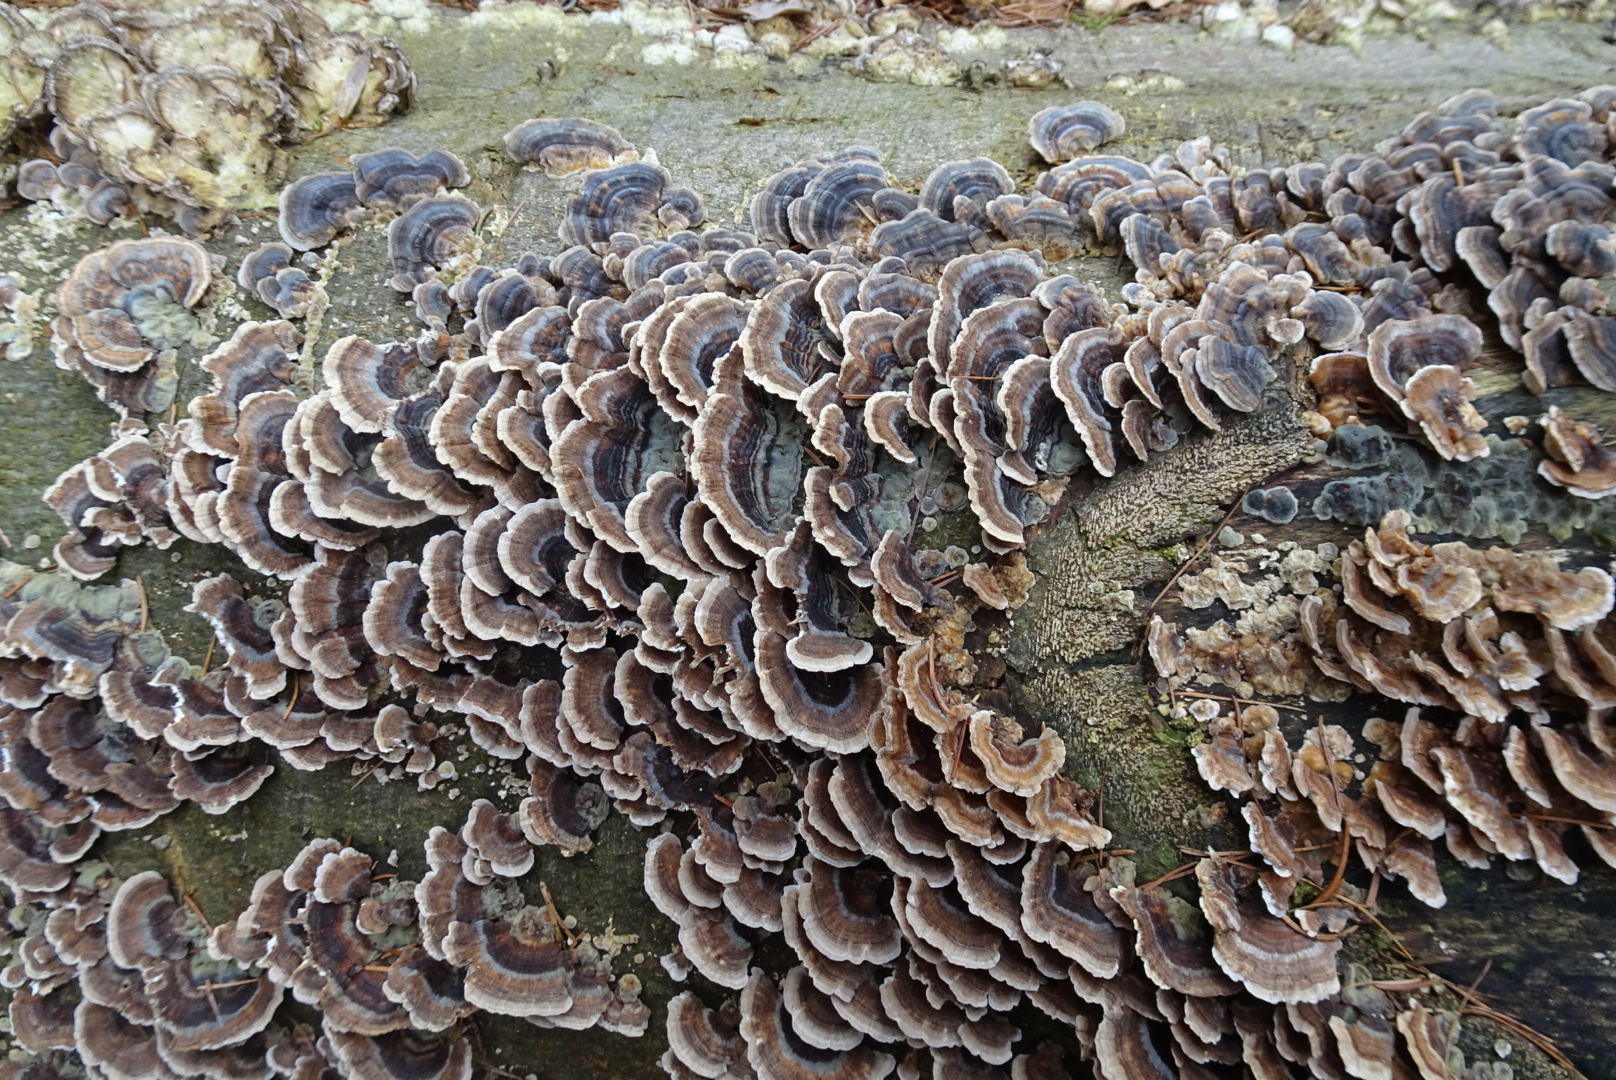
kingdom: Fungi
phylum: Basidiomycota
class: Agaricomycetes
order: Polyporales
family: Polyporaceae
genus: Trametes
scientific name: Trametes versicolor
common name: broget læderporesvamp
